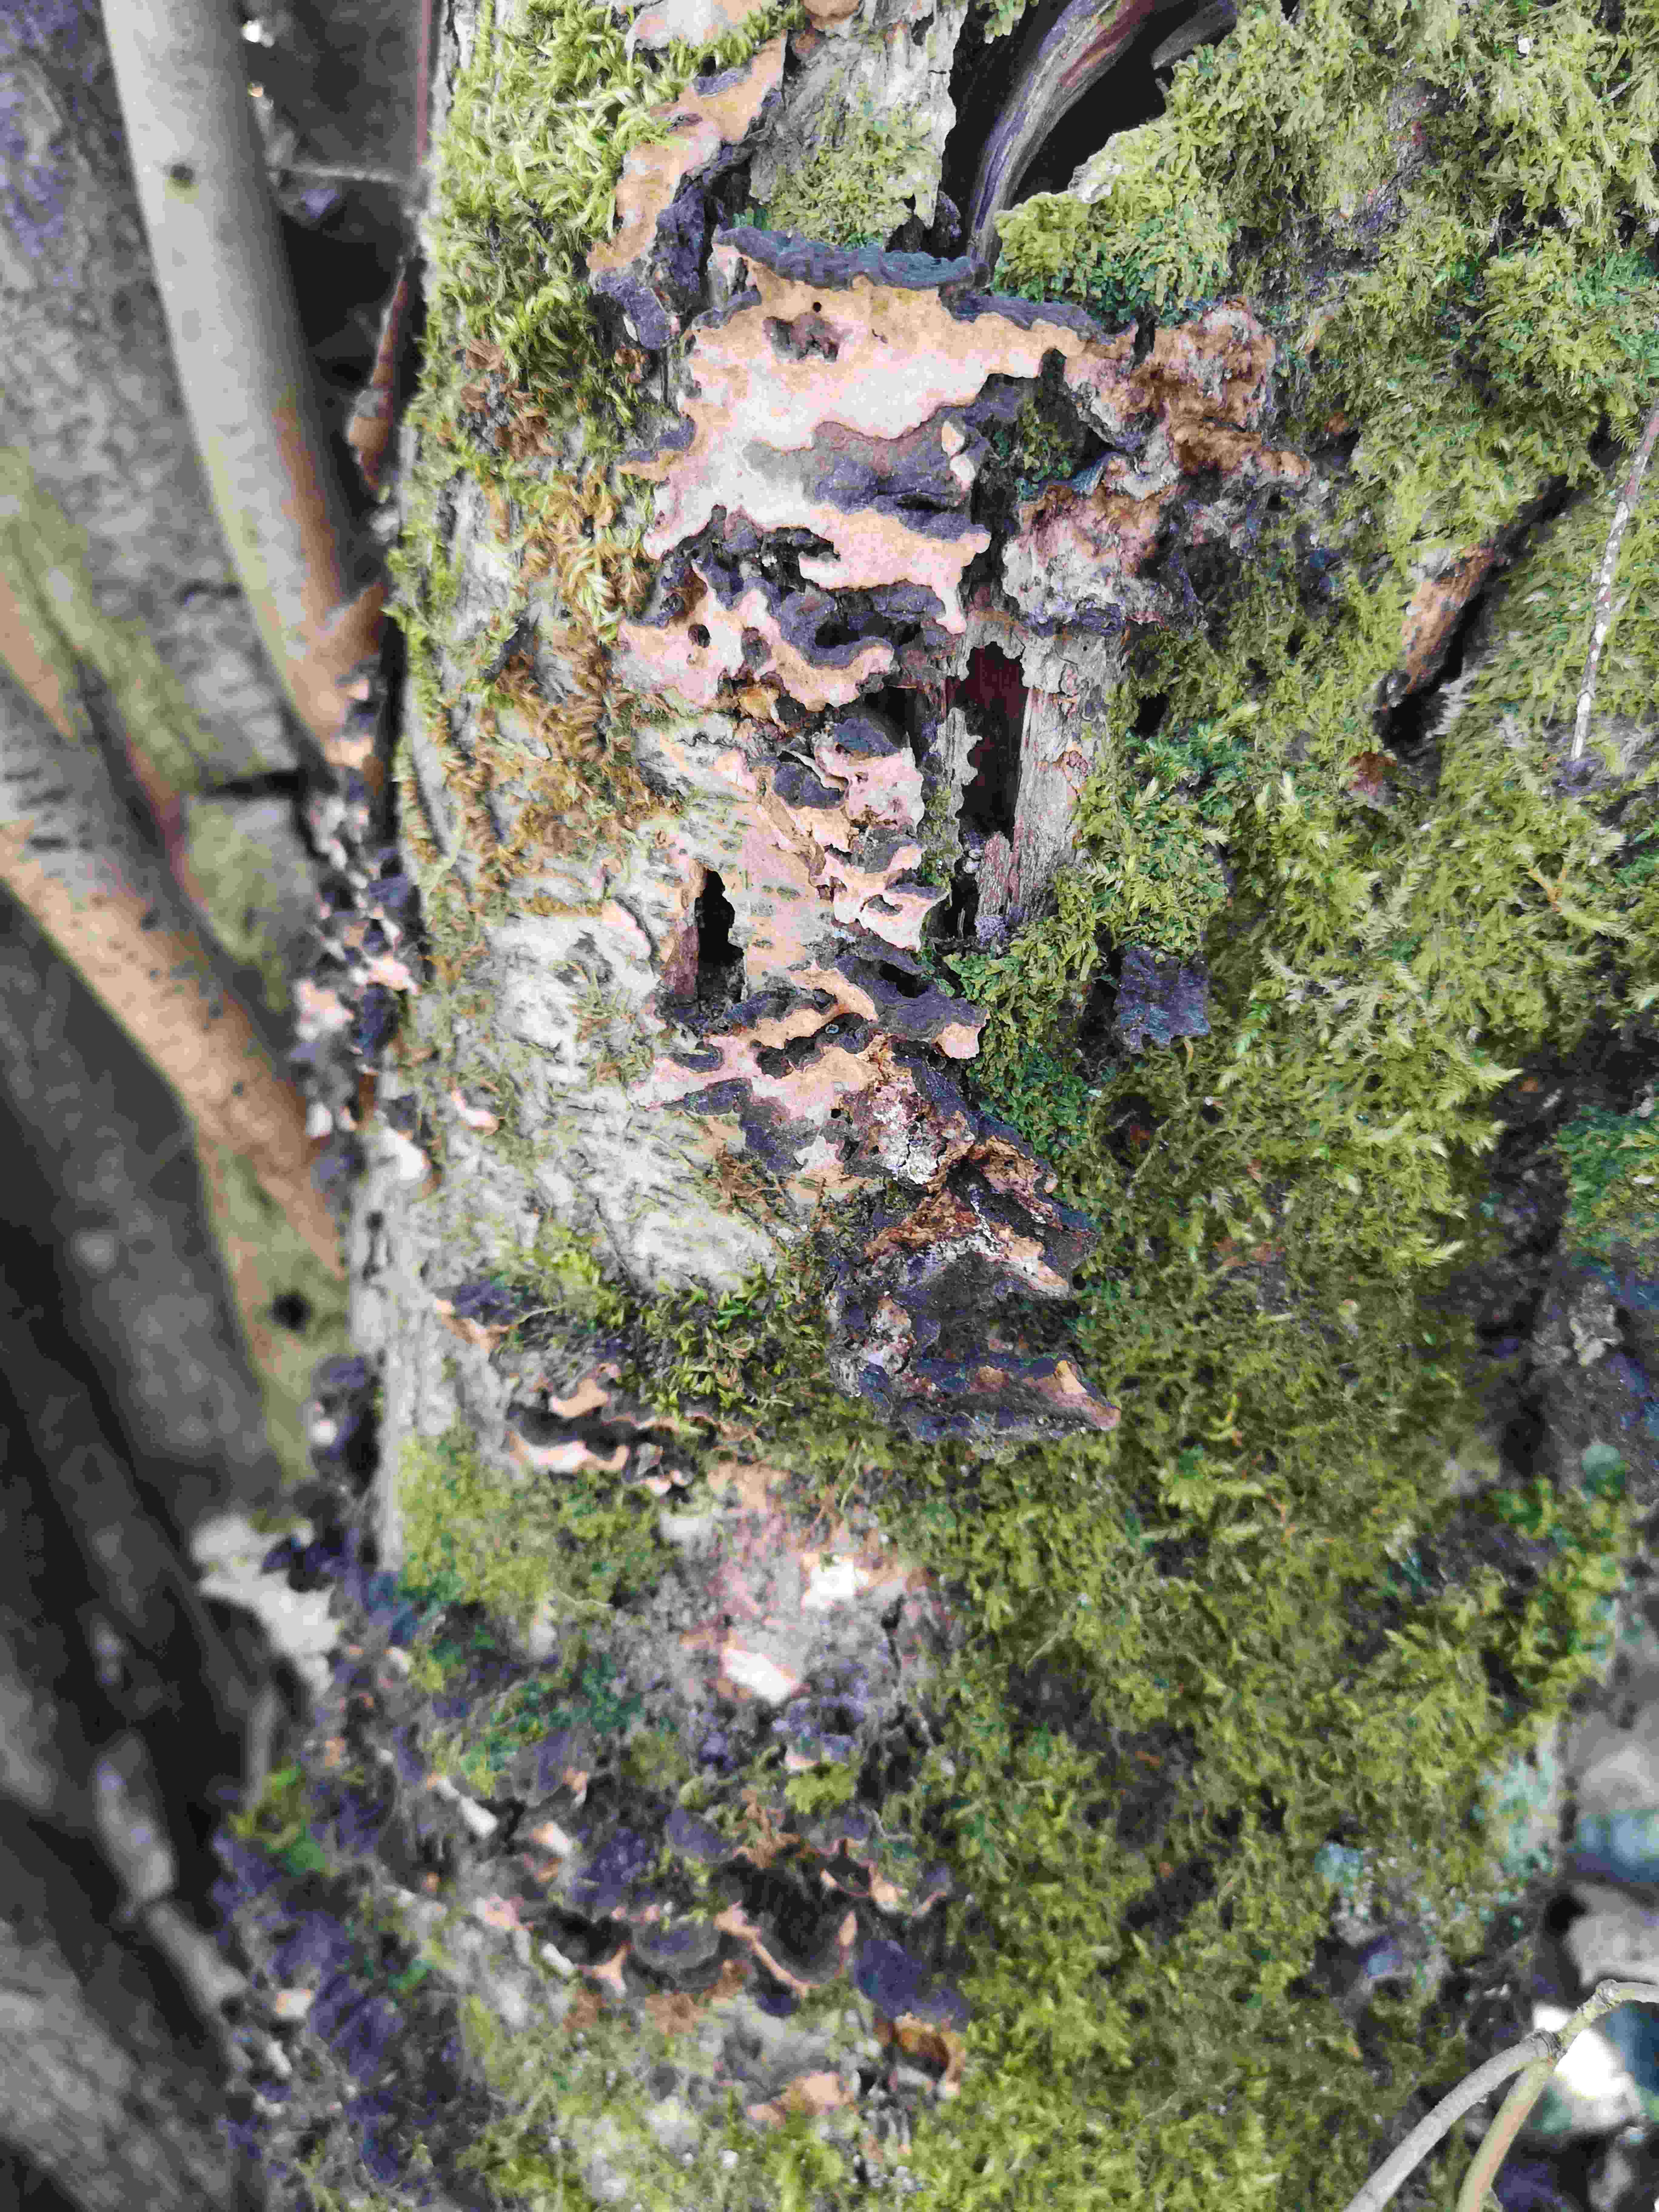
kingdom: Fungi
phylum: Basidiomycota
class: Agaricomycetes
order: Russulales
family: Stereaceae
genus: Stereum
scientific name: Stereum rugosum
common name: rynket lædersvamp
